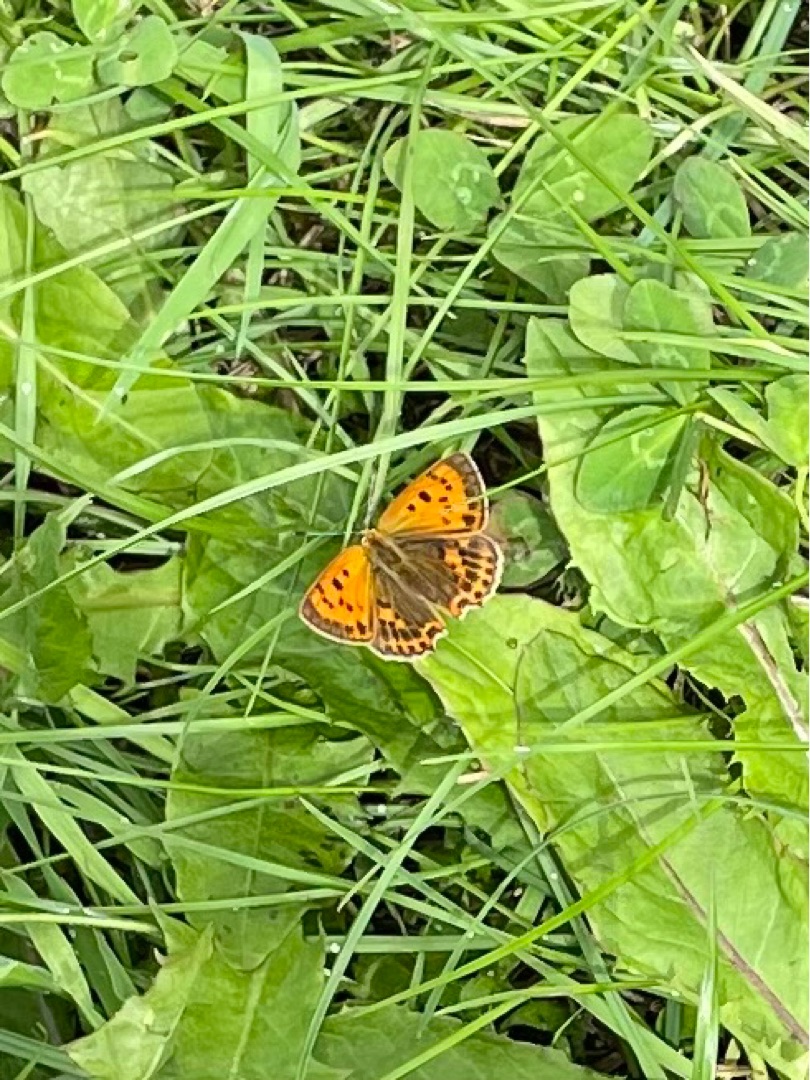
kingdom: Animalia
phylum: Arthropoda
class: Insecta
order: Lepidoptera
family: Lycaenidae
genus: Lycaena
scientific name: Lycaena virgaureae
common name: Dukatsommerfugl
